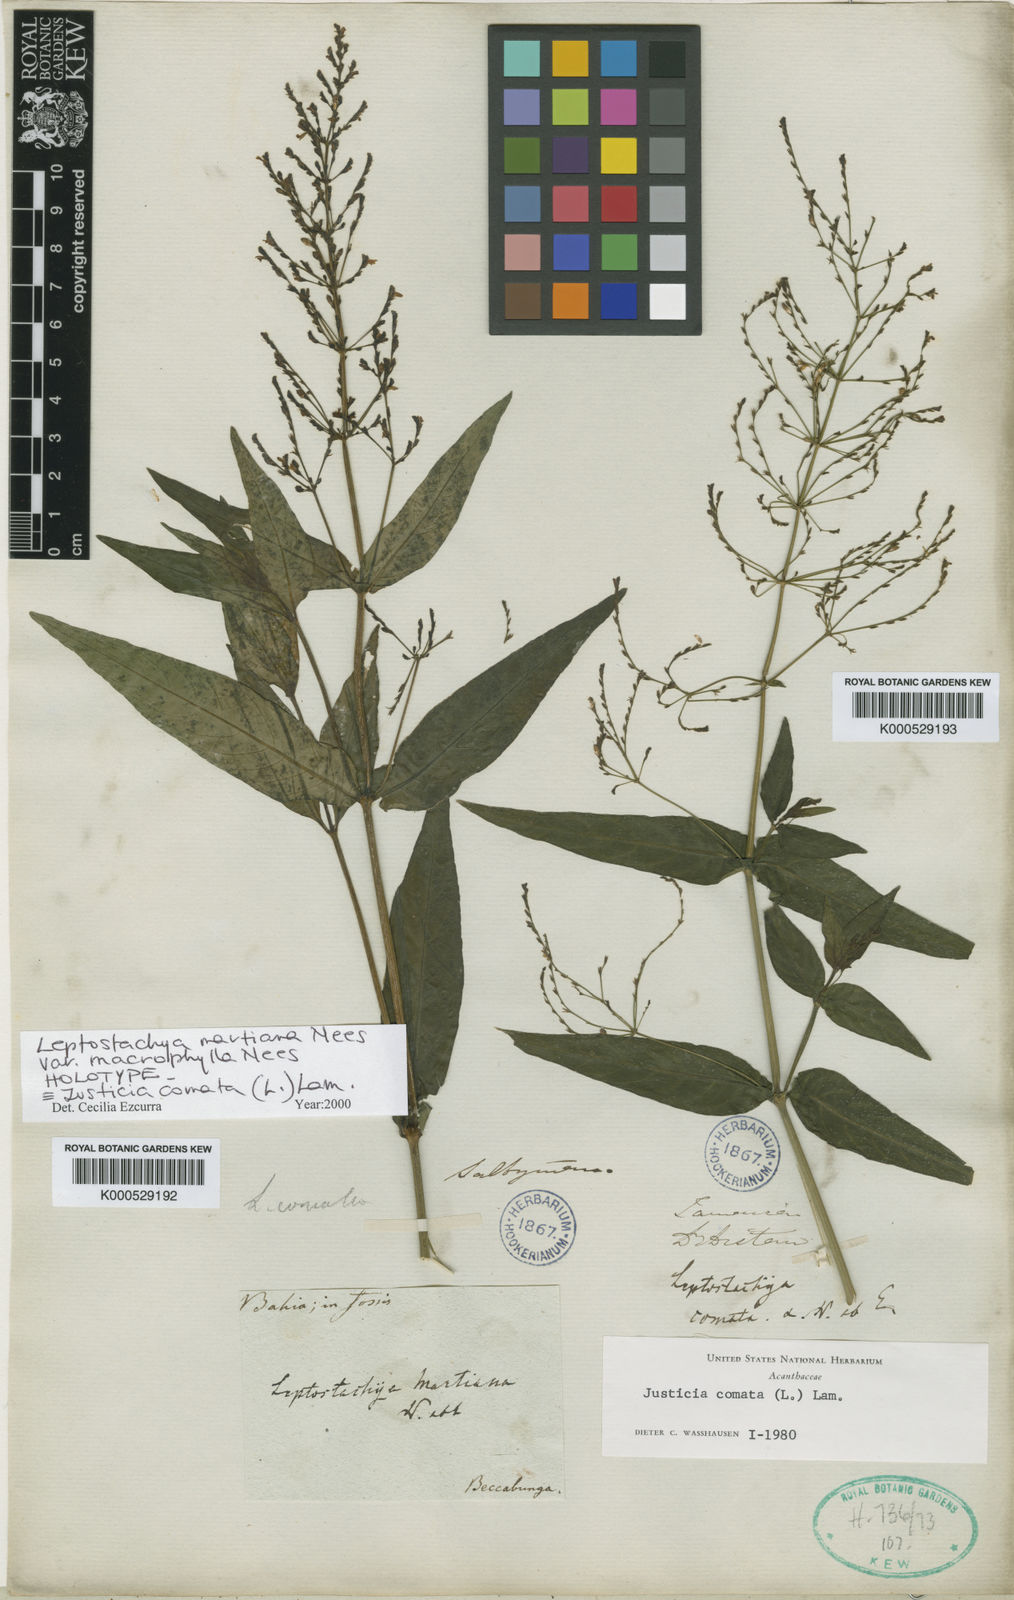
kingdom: Plantae
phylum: Tracheophyta
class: Magnoliopsida
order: Lamiales
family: Acanthaceae
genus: Dianthera
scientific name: Dianthera comata
